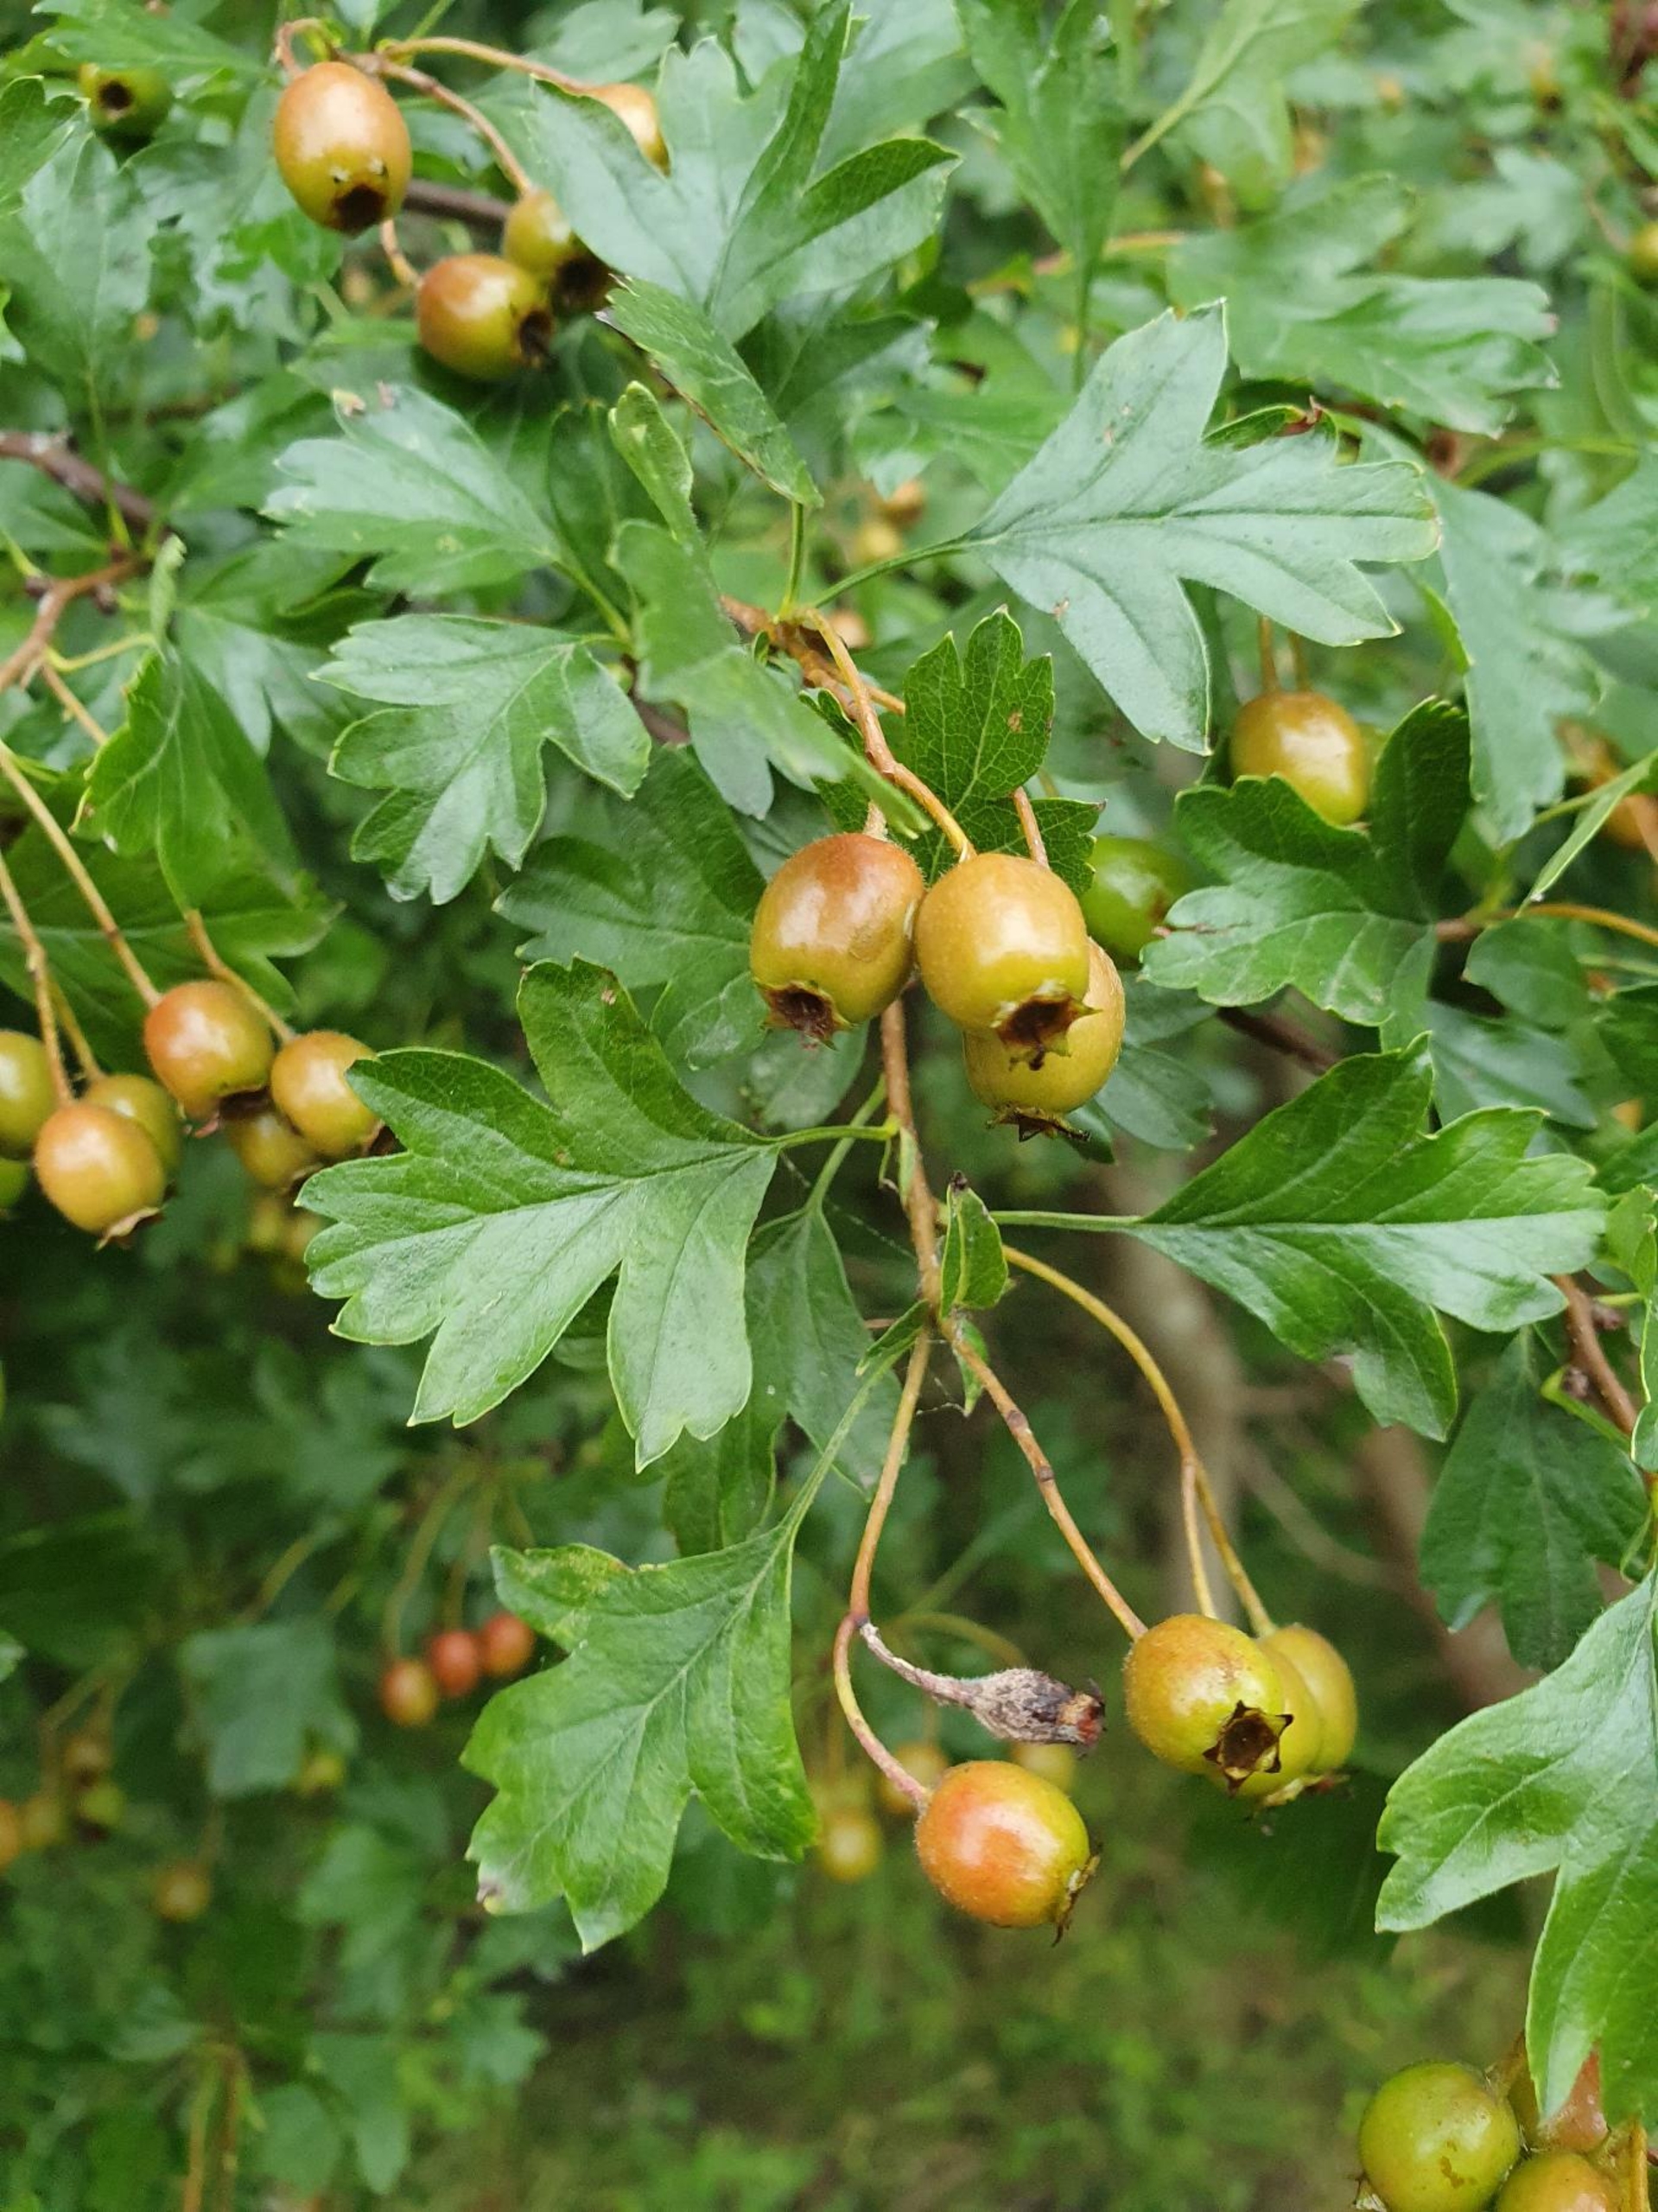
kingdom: Plantae
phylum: Tracheophyta
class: Magnoliopsida
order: Rosales
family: Rosaceae
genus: Crataegus
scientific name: Crataegus monogyna
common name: Engriflet hvidtjørn
